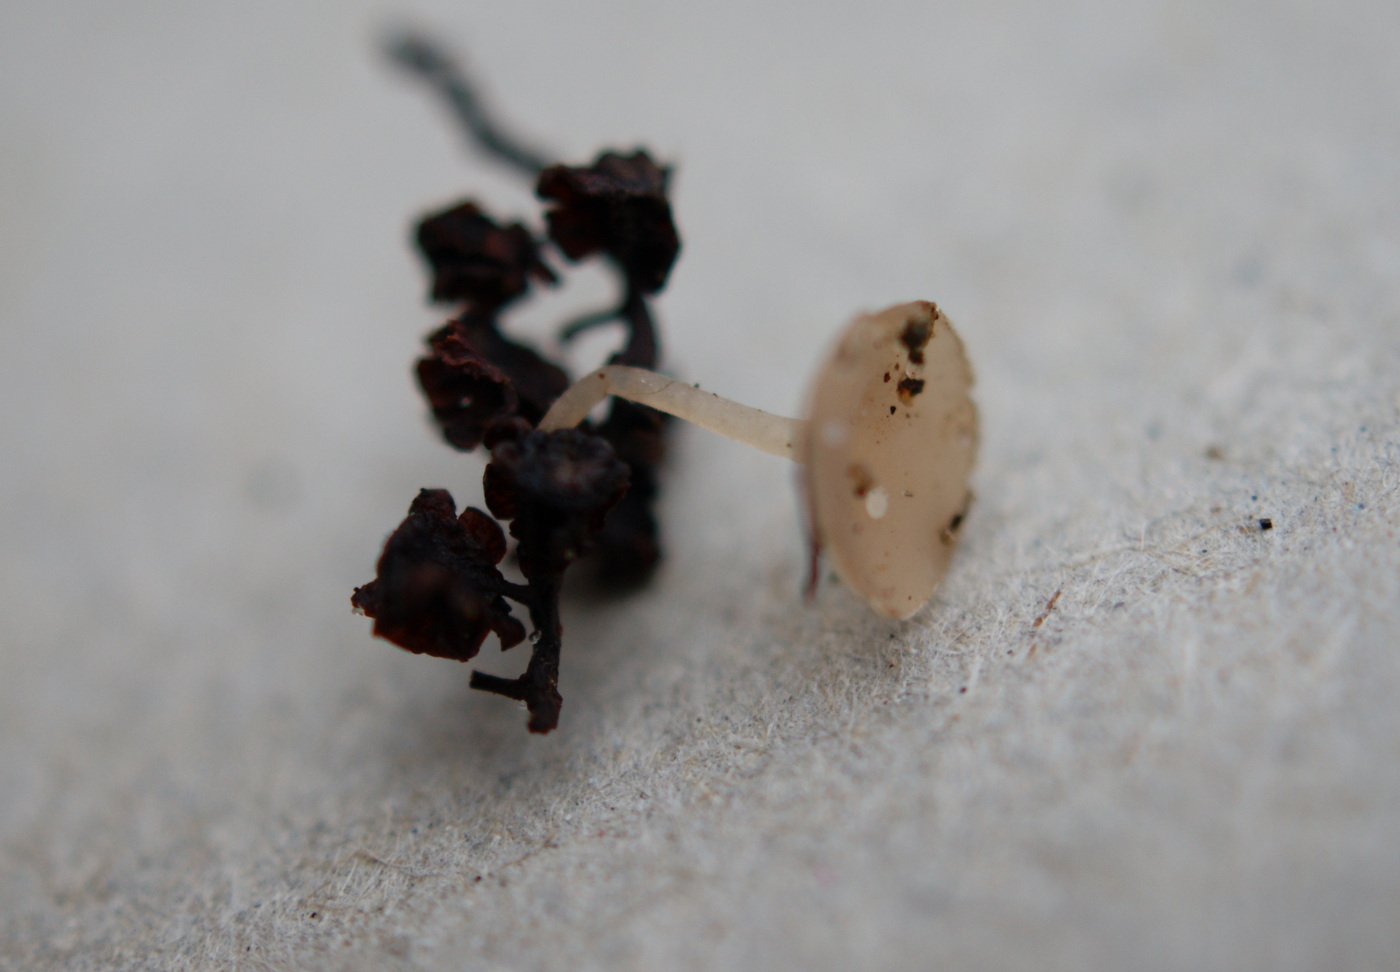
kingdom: Fungi
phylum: Ascomycota
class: Leotiomycetes
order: Helotiales
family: Sclerotiniaceae
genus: Ciboria
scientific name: Ciboria amentacea
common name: ellerakle-knoldskive
